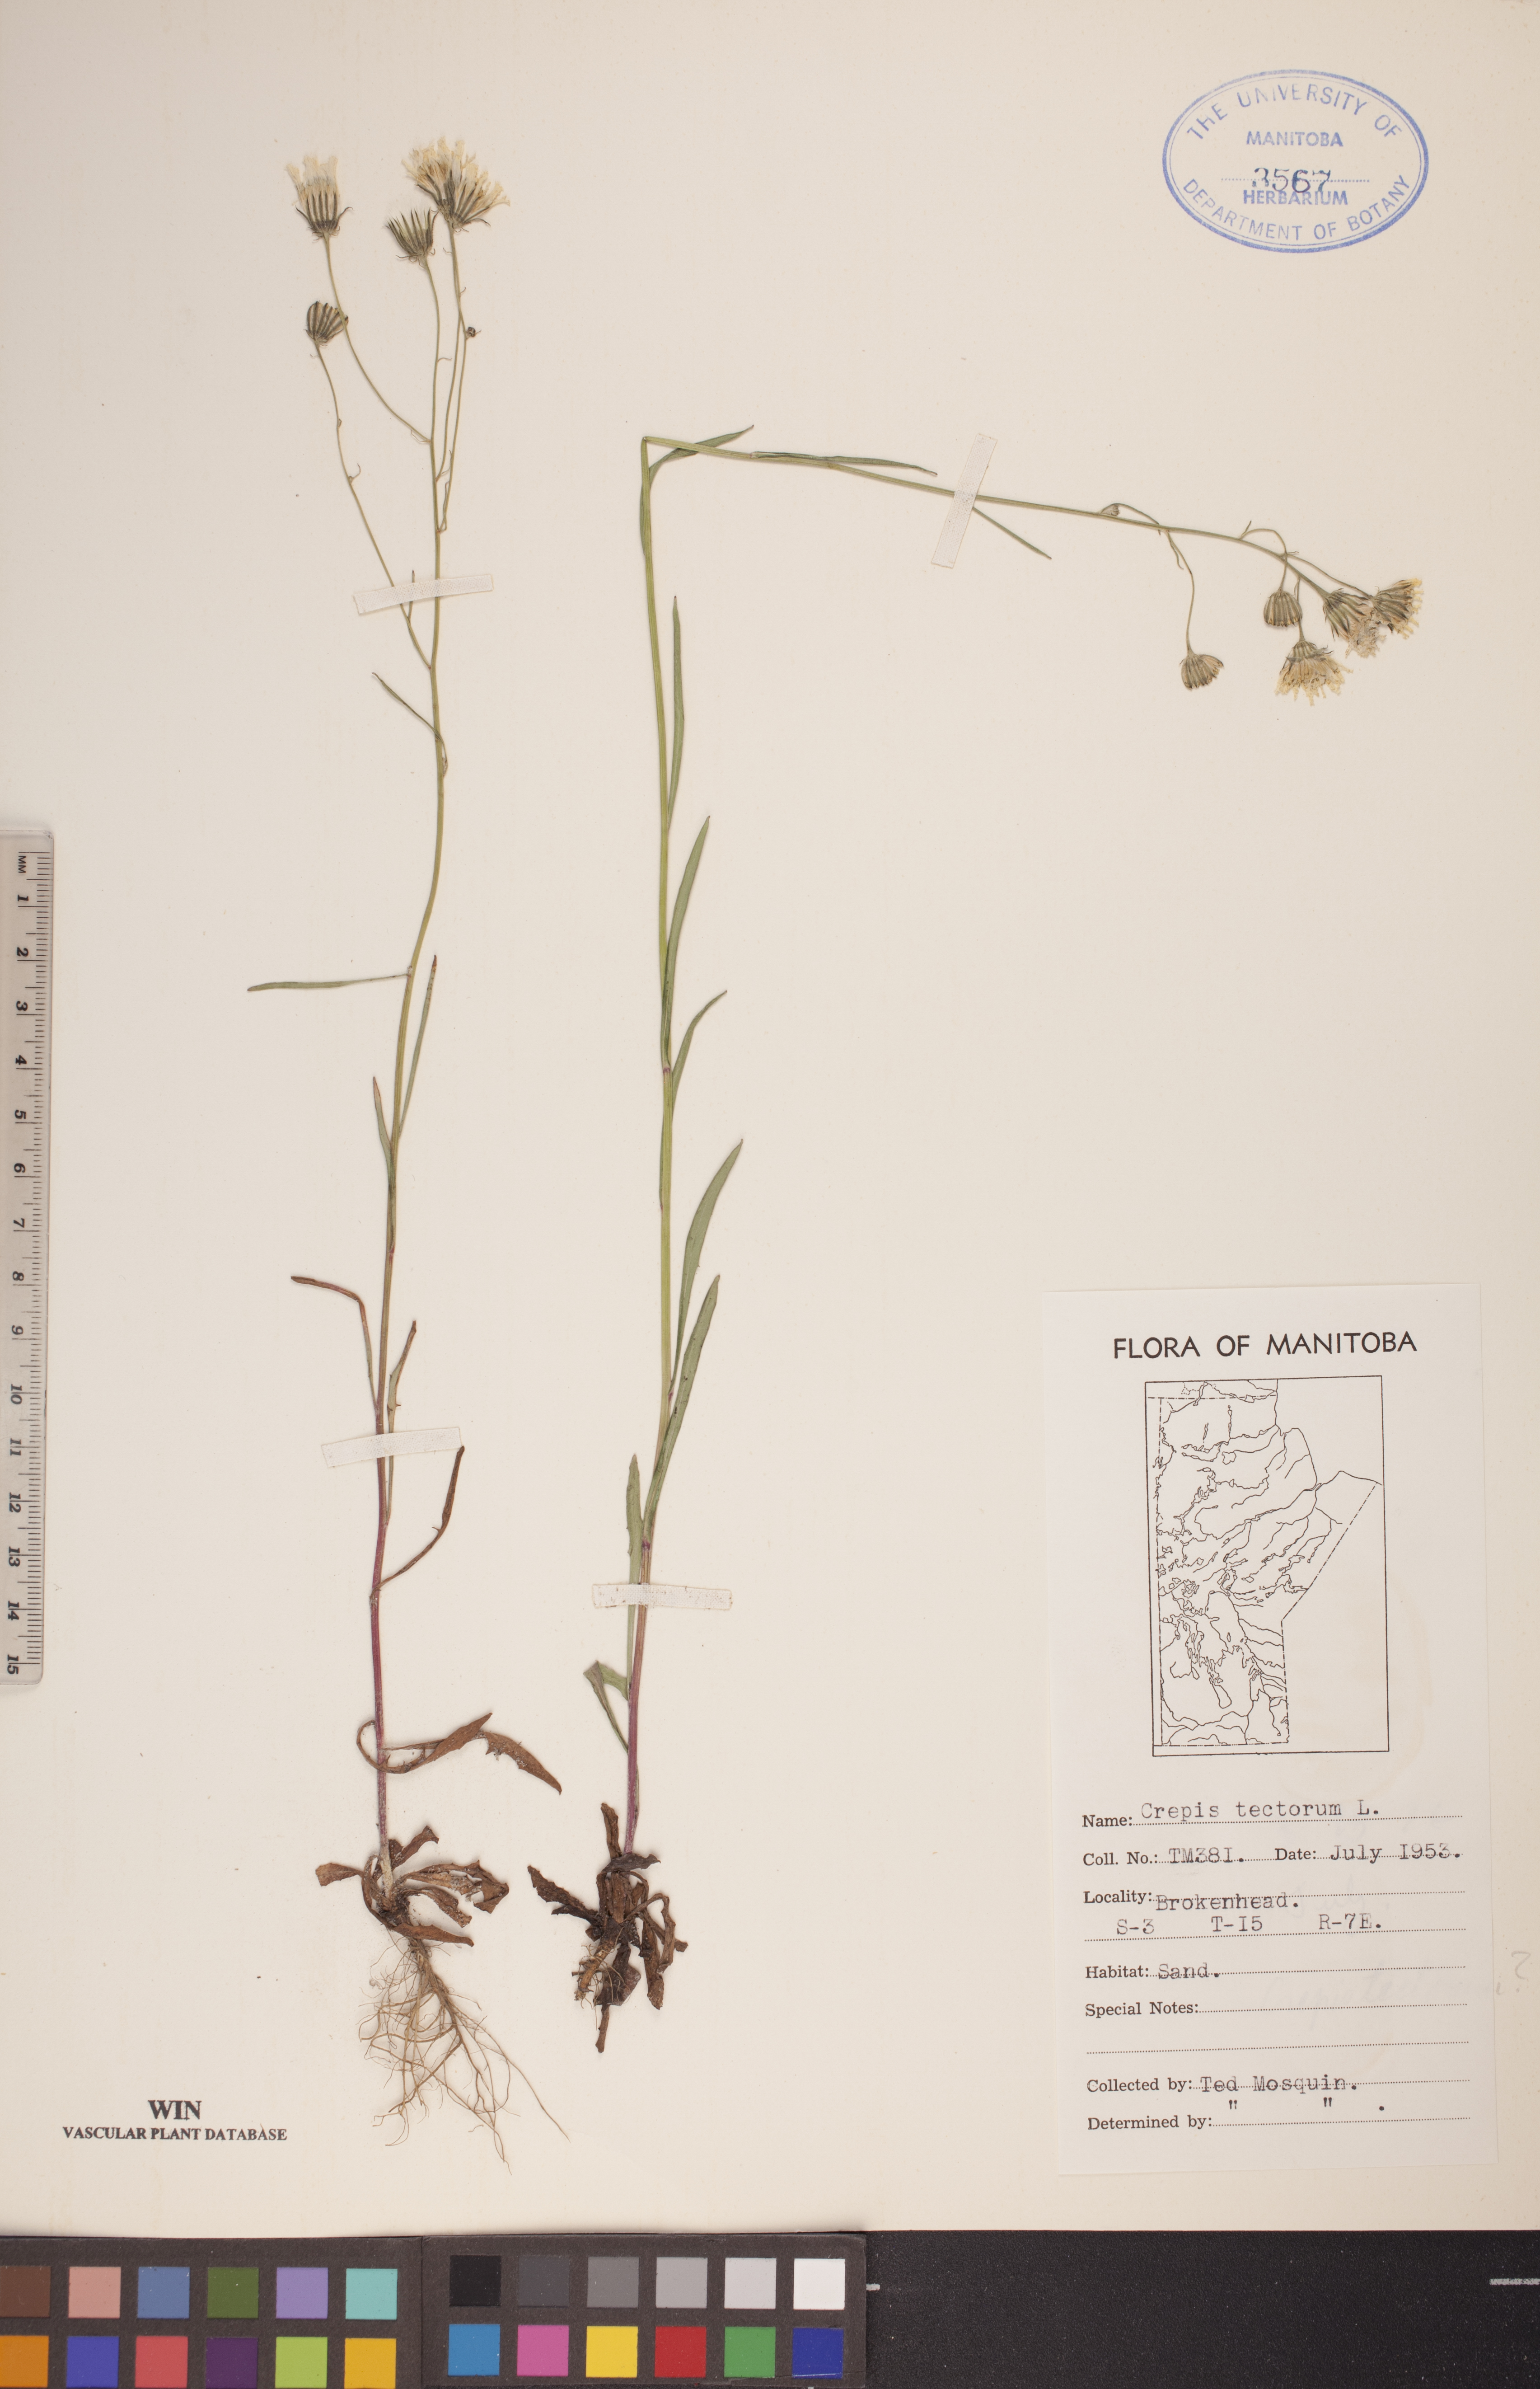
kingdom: Plantae
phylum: Tracheophyta
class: Magnoliopsida
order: Asterales
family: Asteraceae
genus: Crepis
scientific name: Crepis tectorum
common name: Narrow-leaved hawk's-beard
